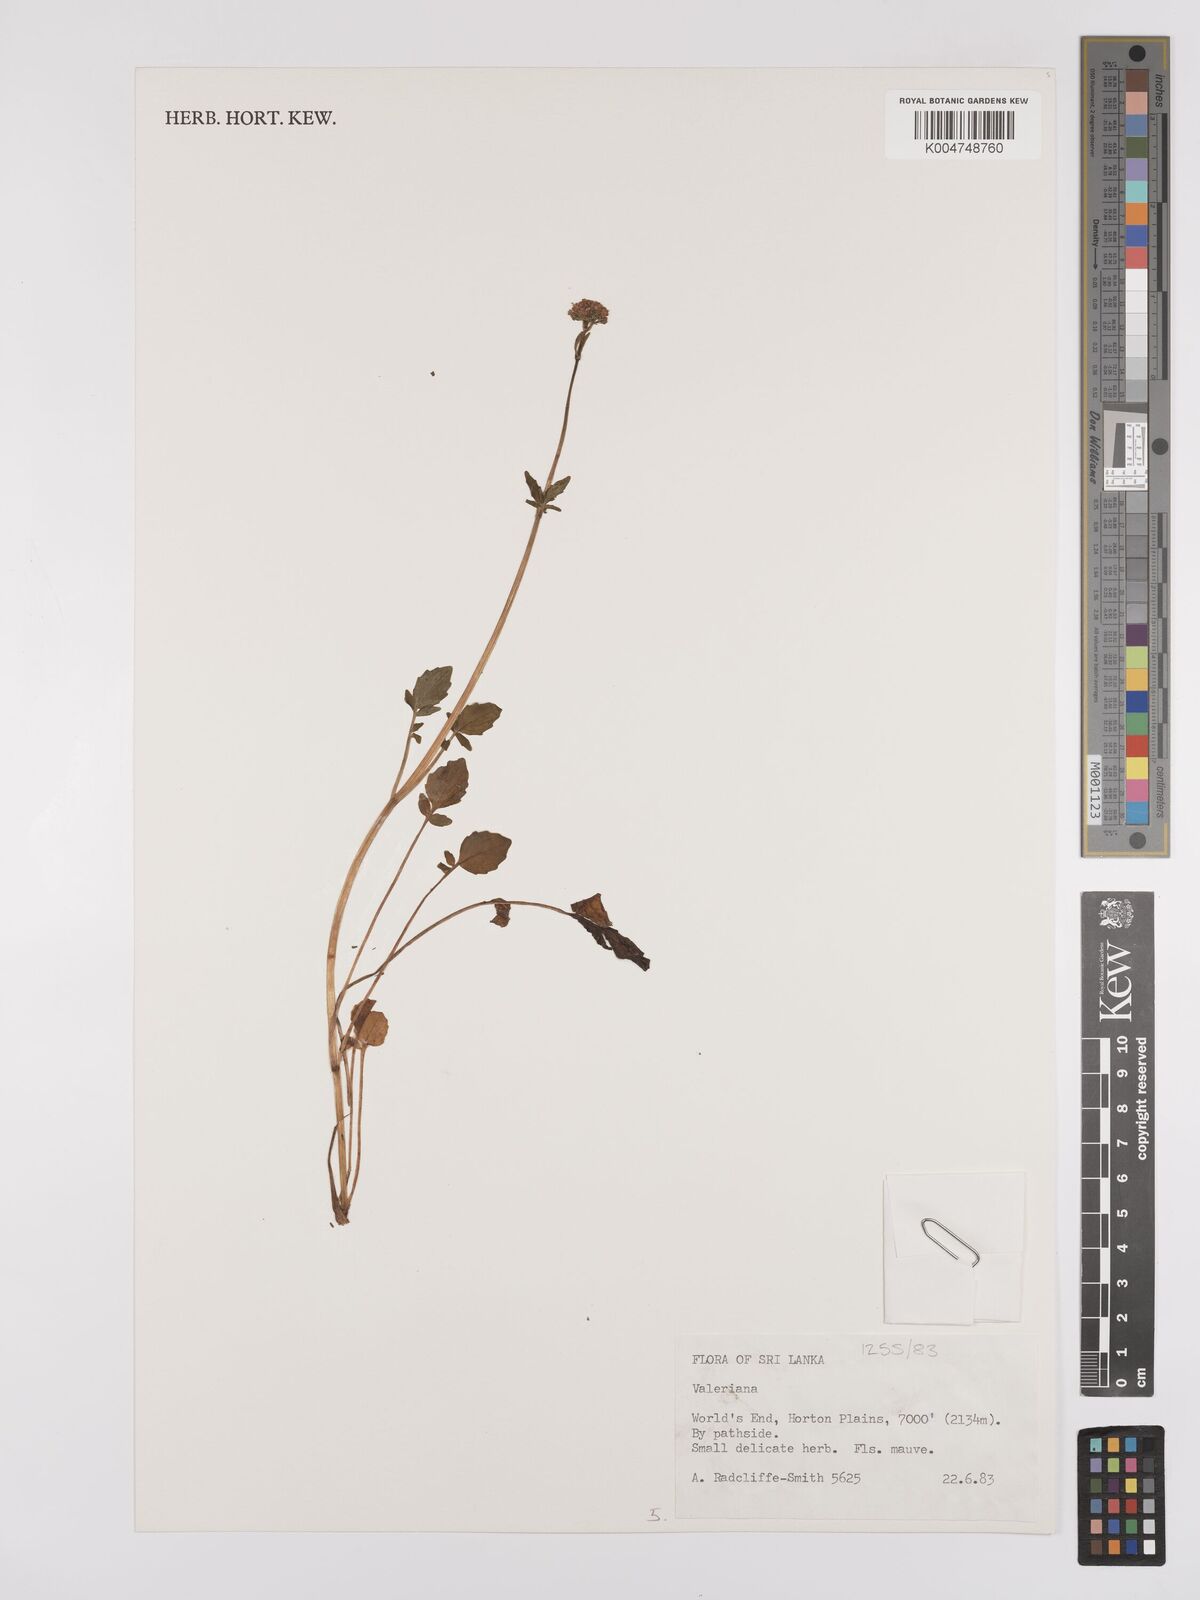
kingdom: Plantae
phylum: Tracheophyta
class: Magnoliopsida
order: Dipsacales
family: Caprifoliaceae
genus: Valeriana
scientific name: Valeriana
